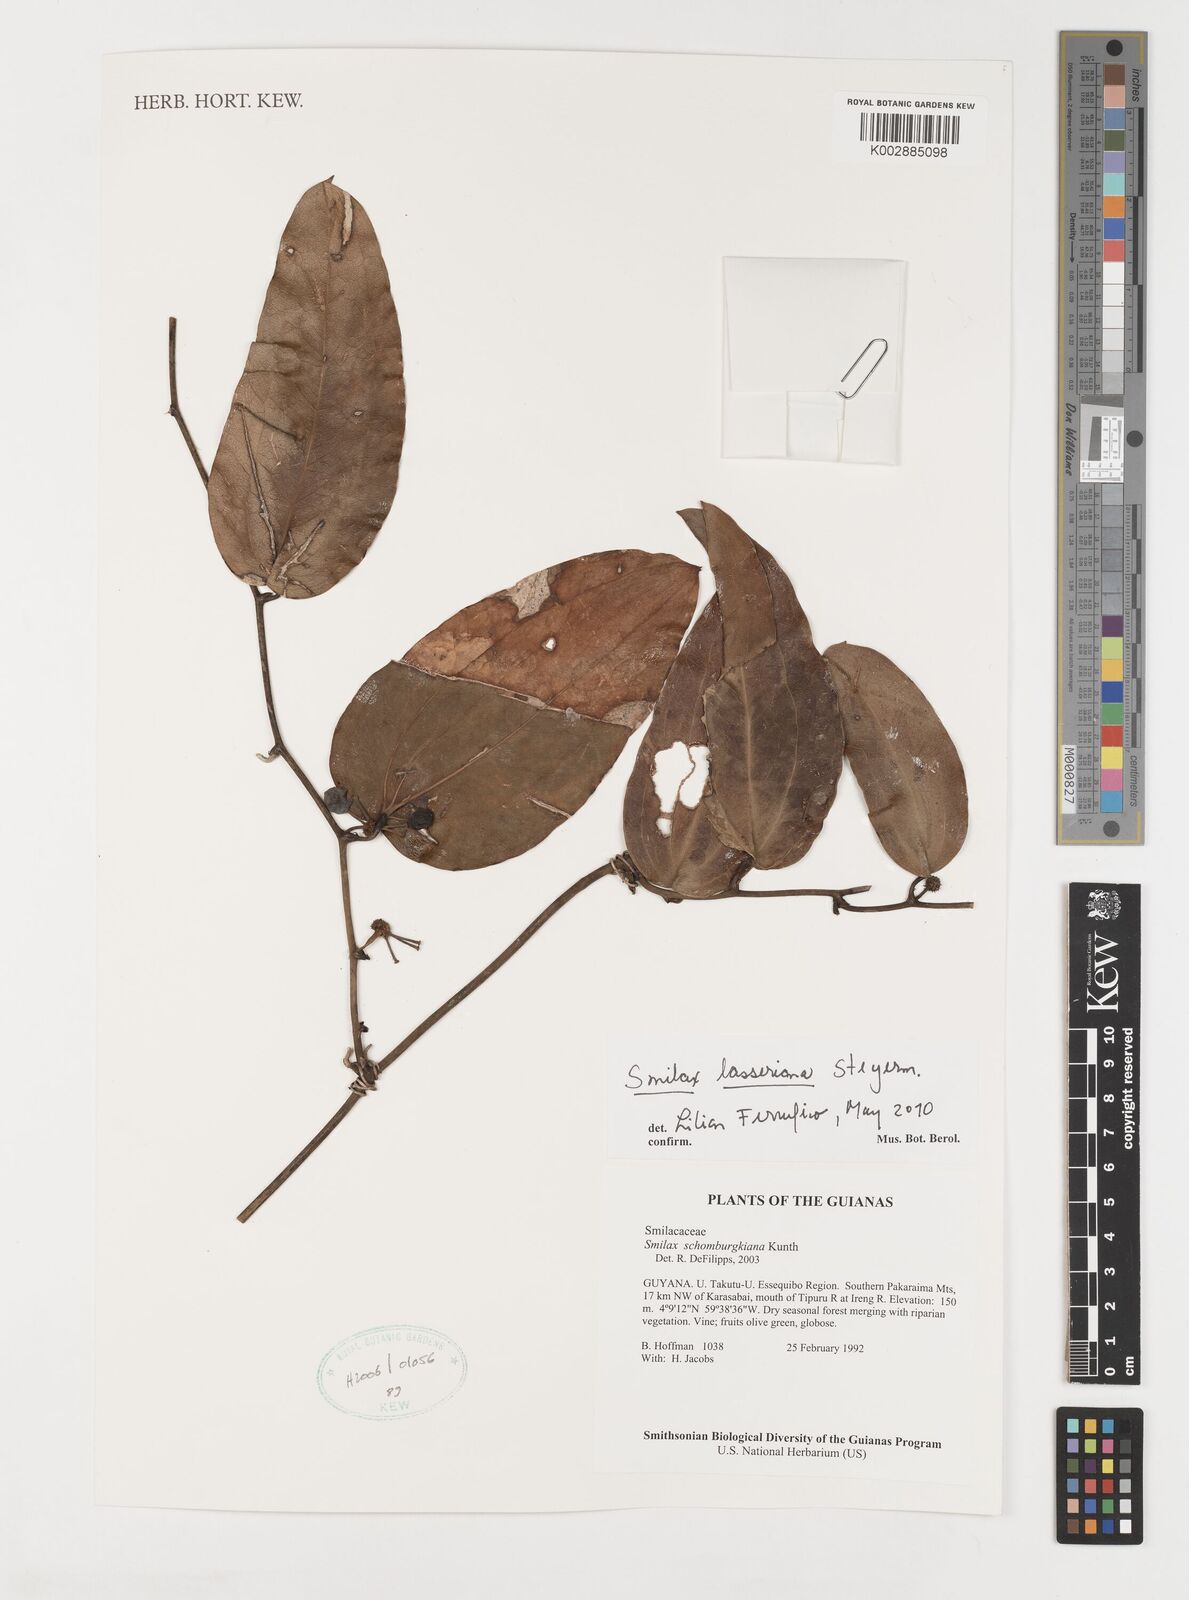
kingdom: Plantae
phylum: Tracheophyta
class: Liliopsida
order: Liliales
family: Smilacaceae
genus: Smilax
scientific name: Smilax domingensis
